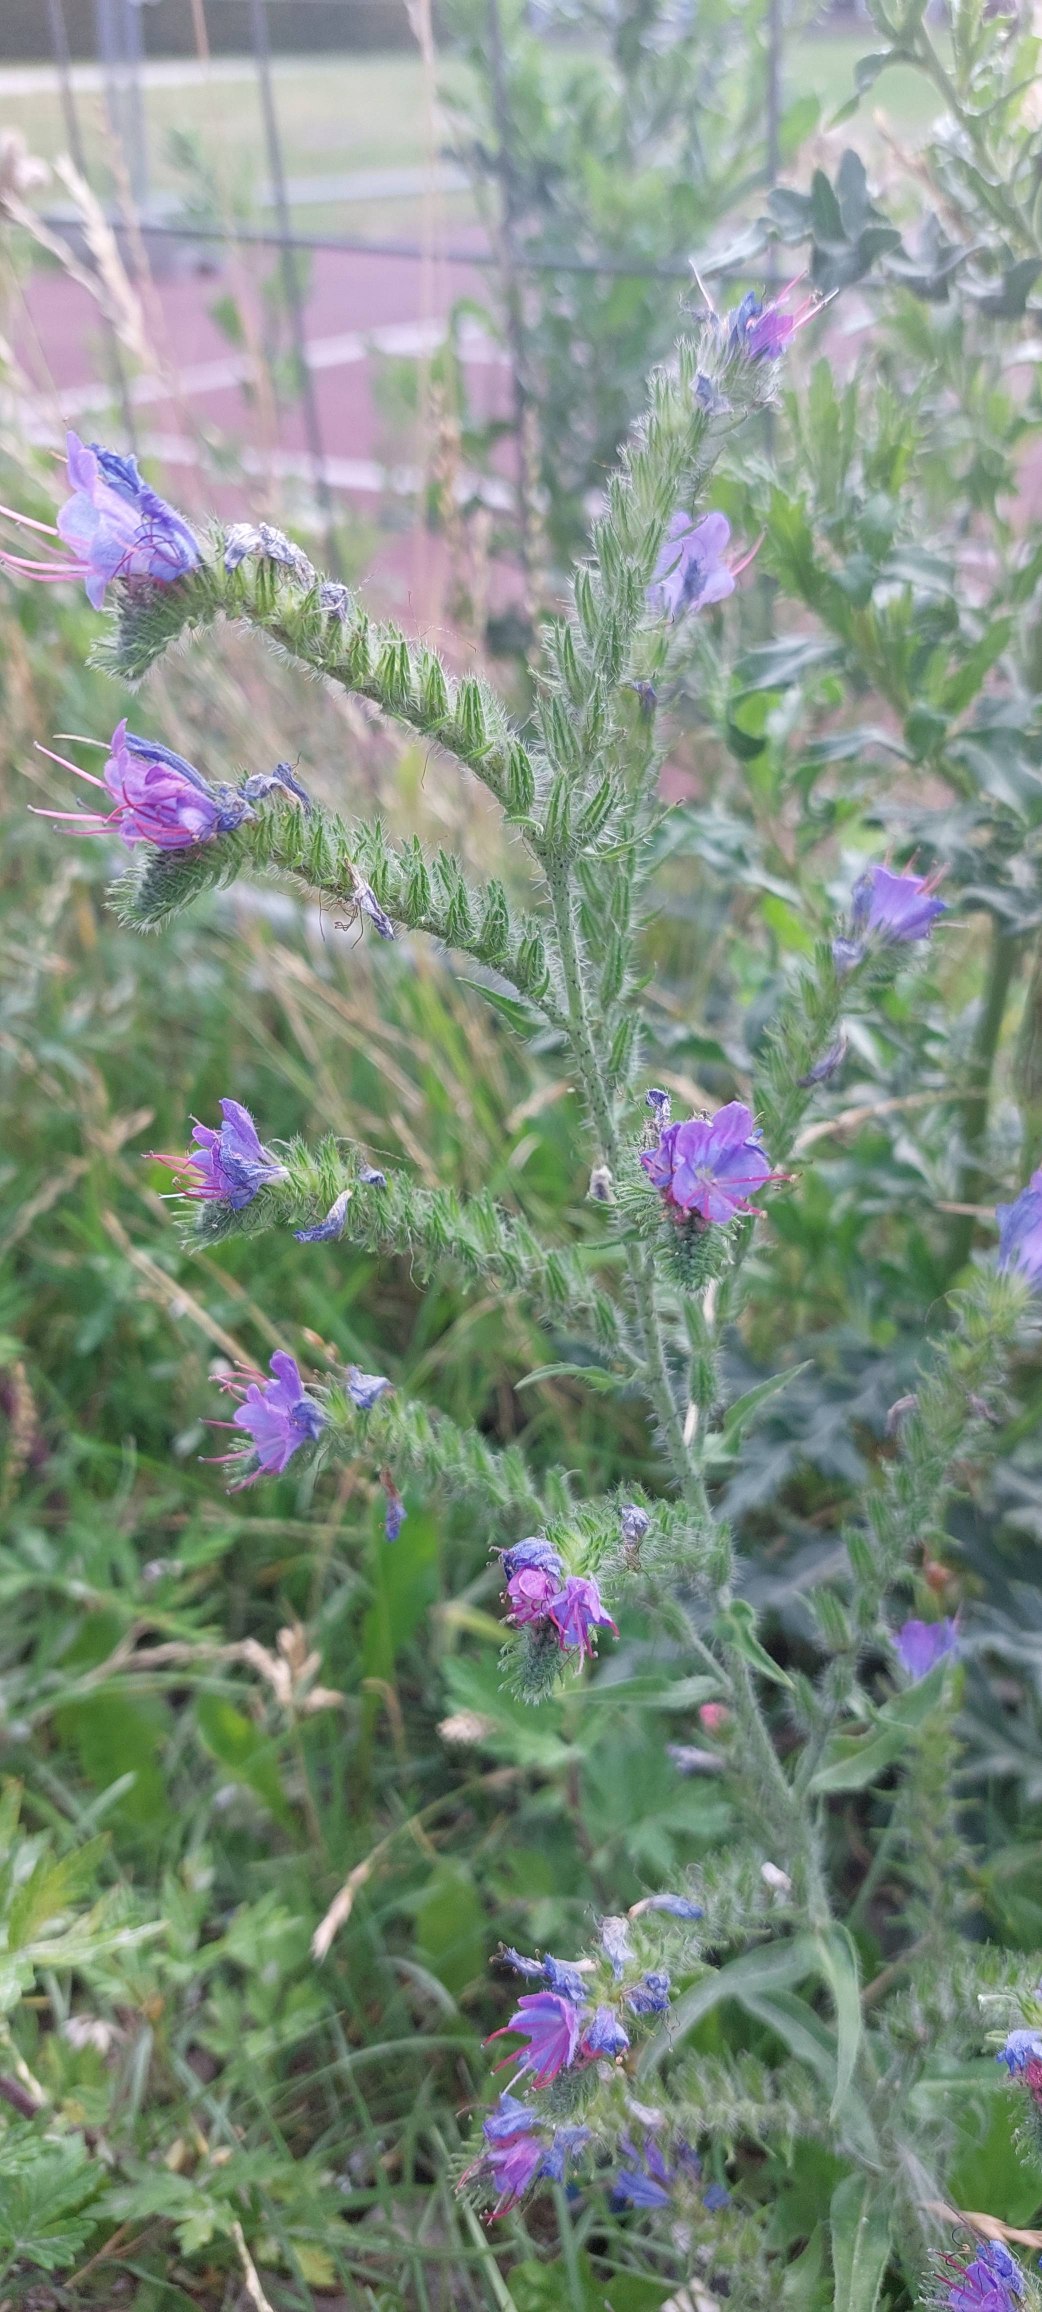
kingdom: Plantae
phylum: Tracheophyta
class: Magnoliopsida
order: Boraginales
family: Boraginaceae
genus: Echium
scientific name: Echium vulgare
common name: Slangehoved
